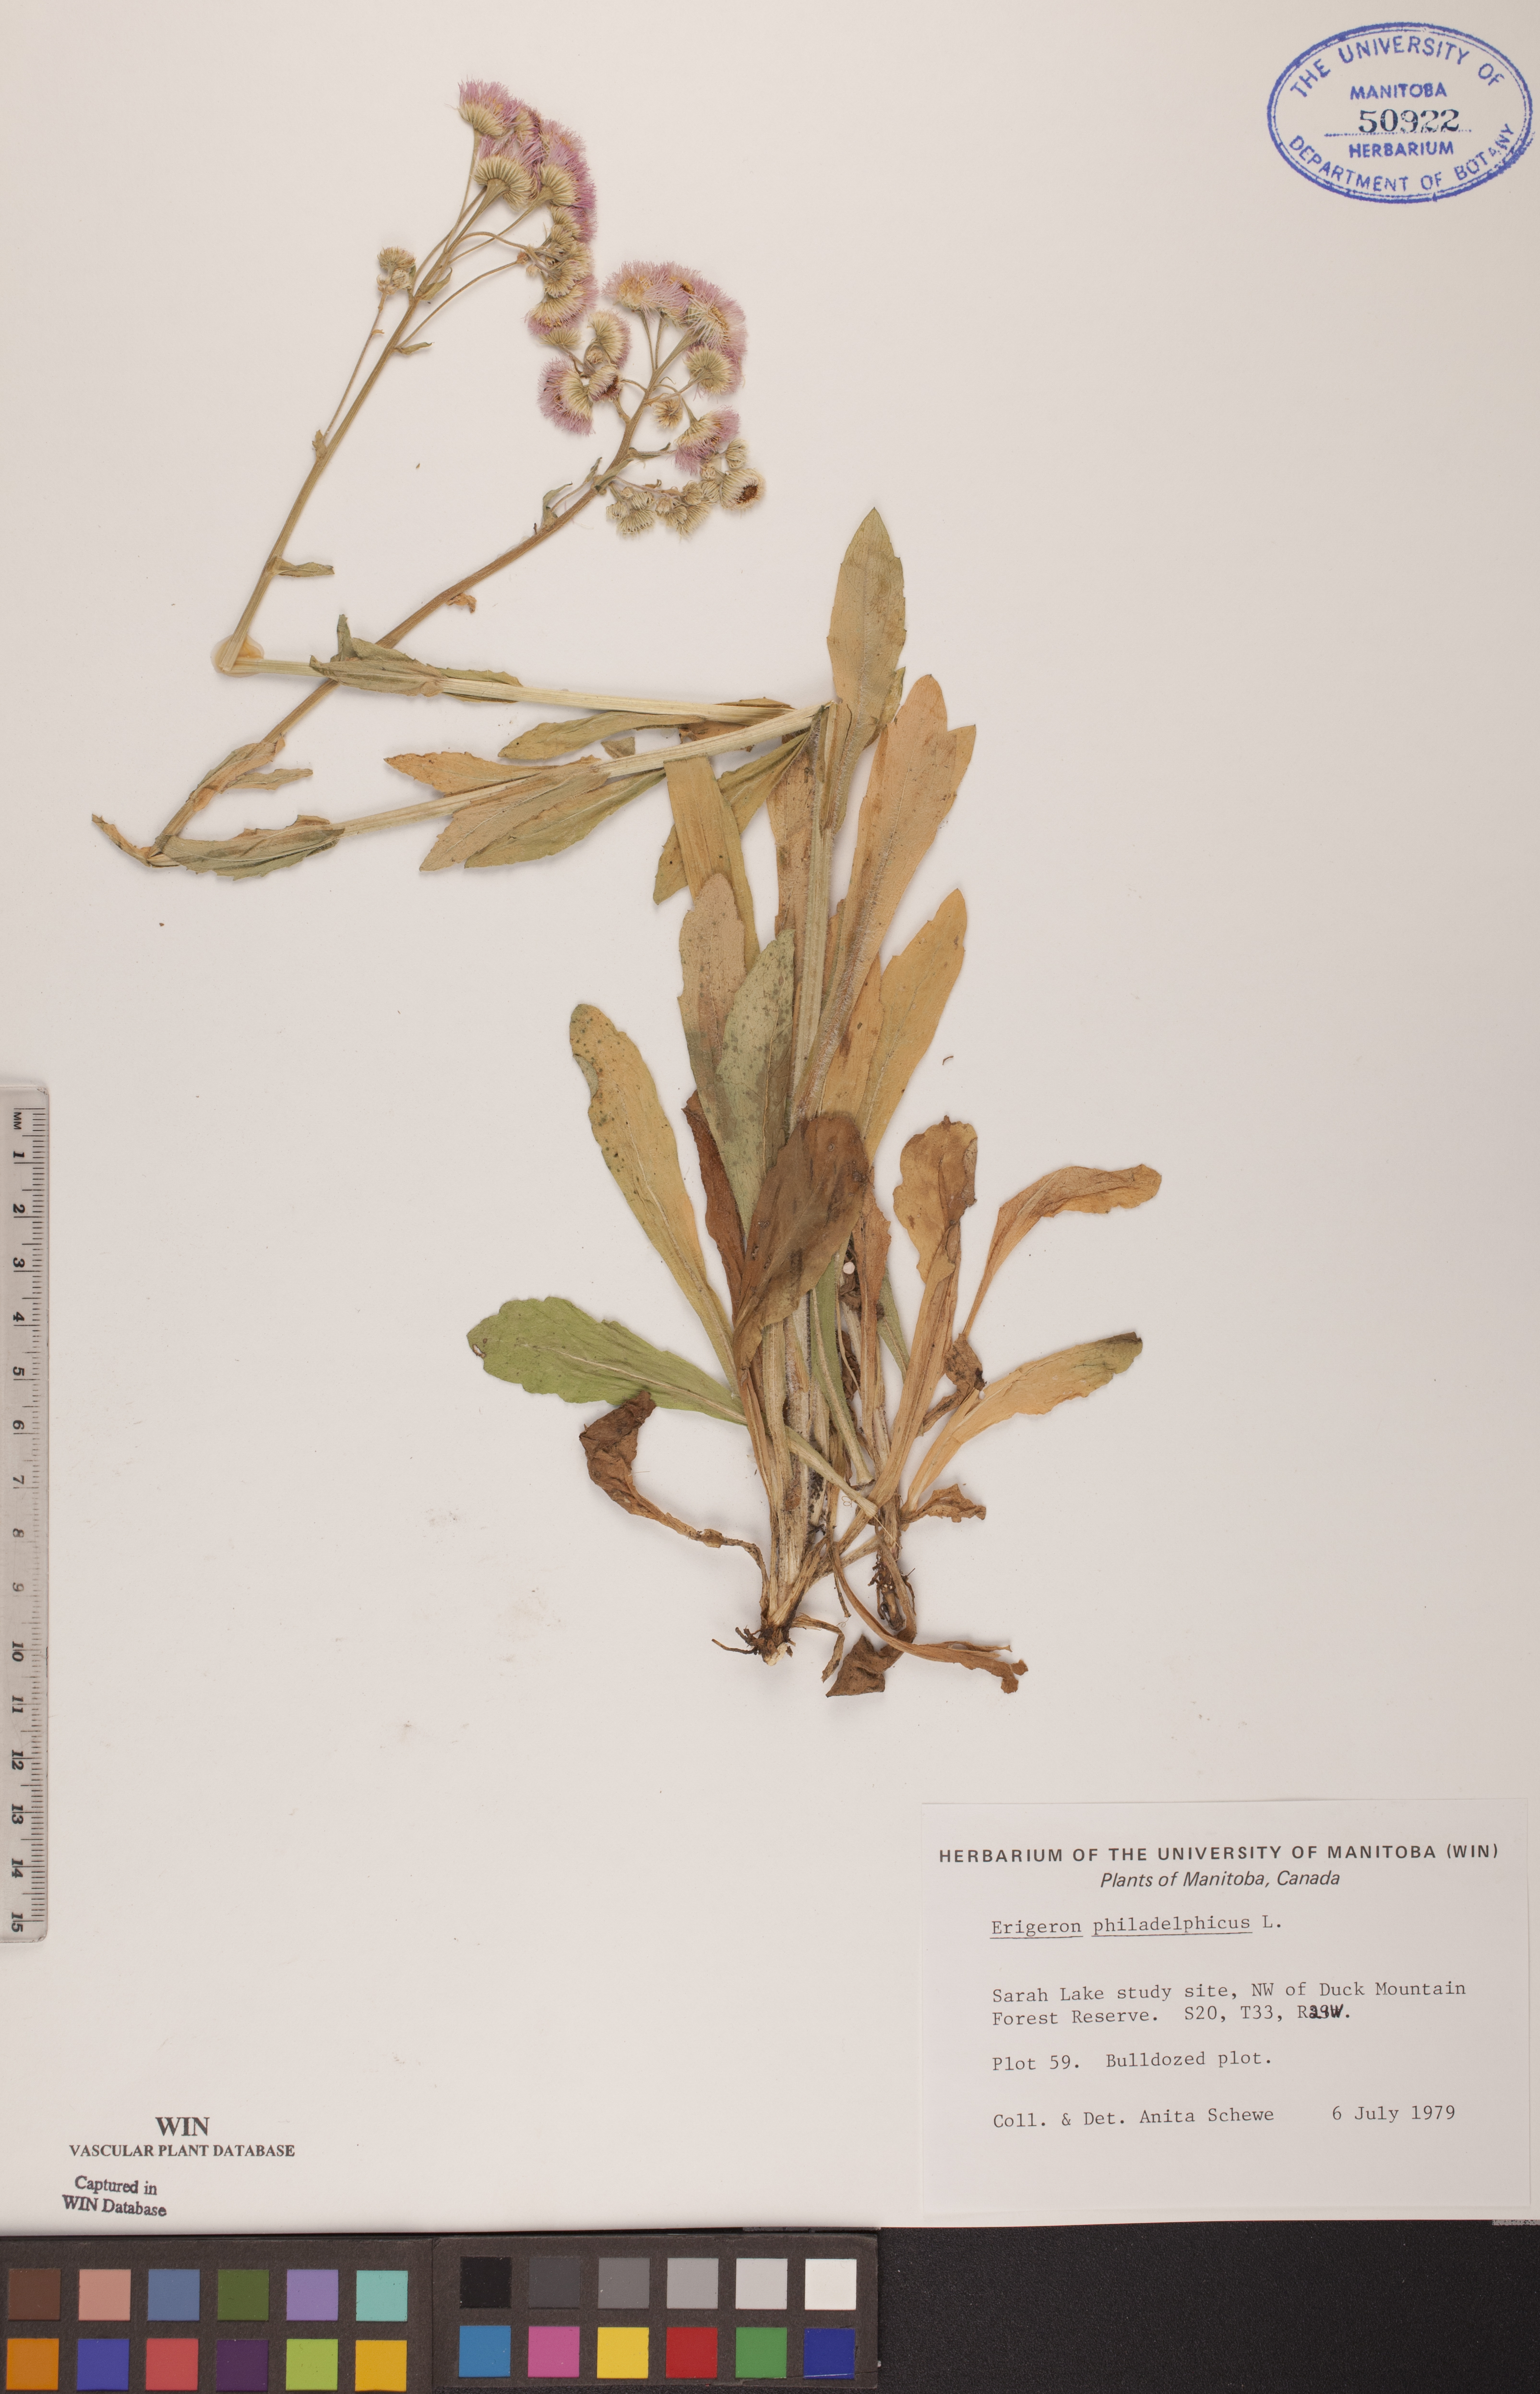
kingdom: Plantae
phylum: Tracheophyta
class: Magnoliopsida
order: Asterales
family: Asteraceae
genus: Erigeron
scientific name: Erigeron philadelphicus
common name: Robin's-plantain
